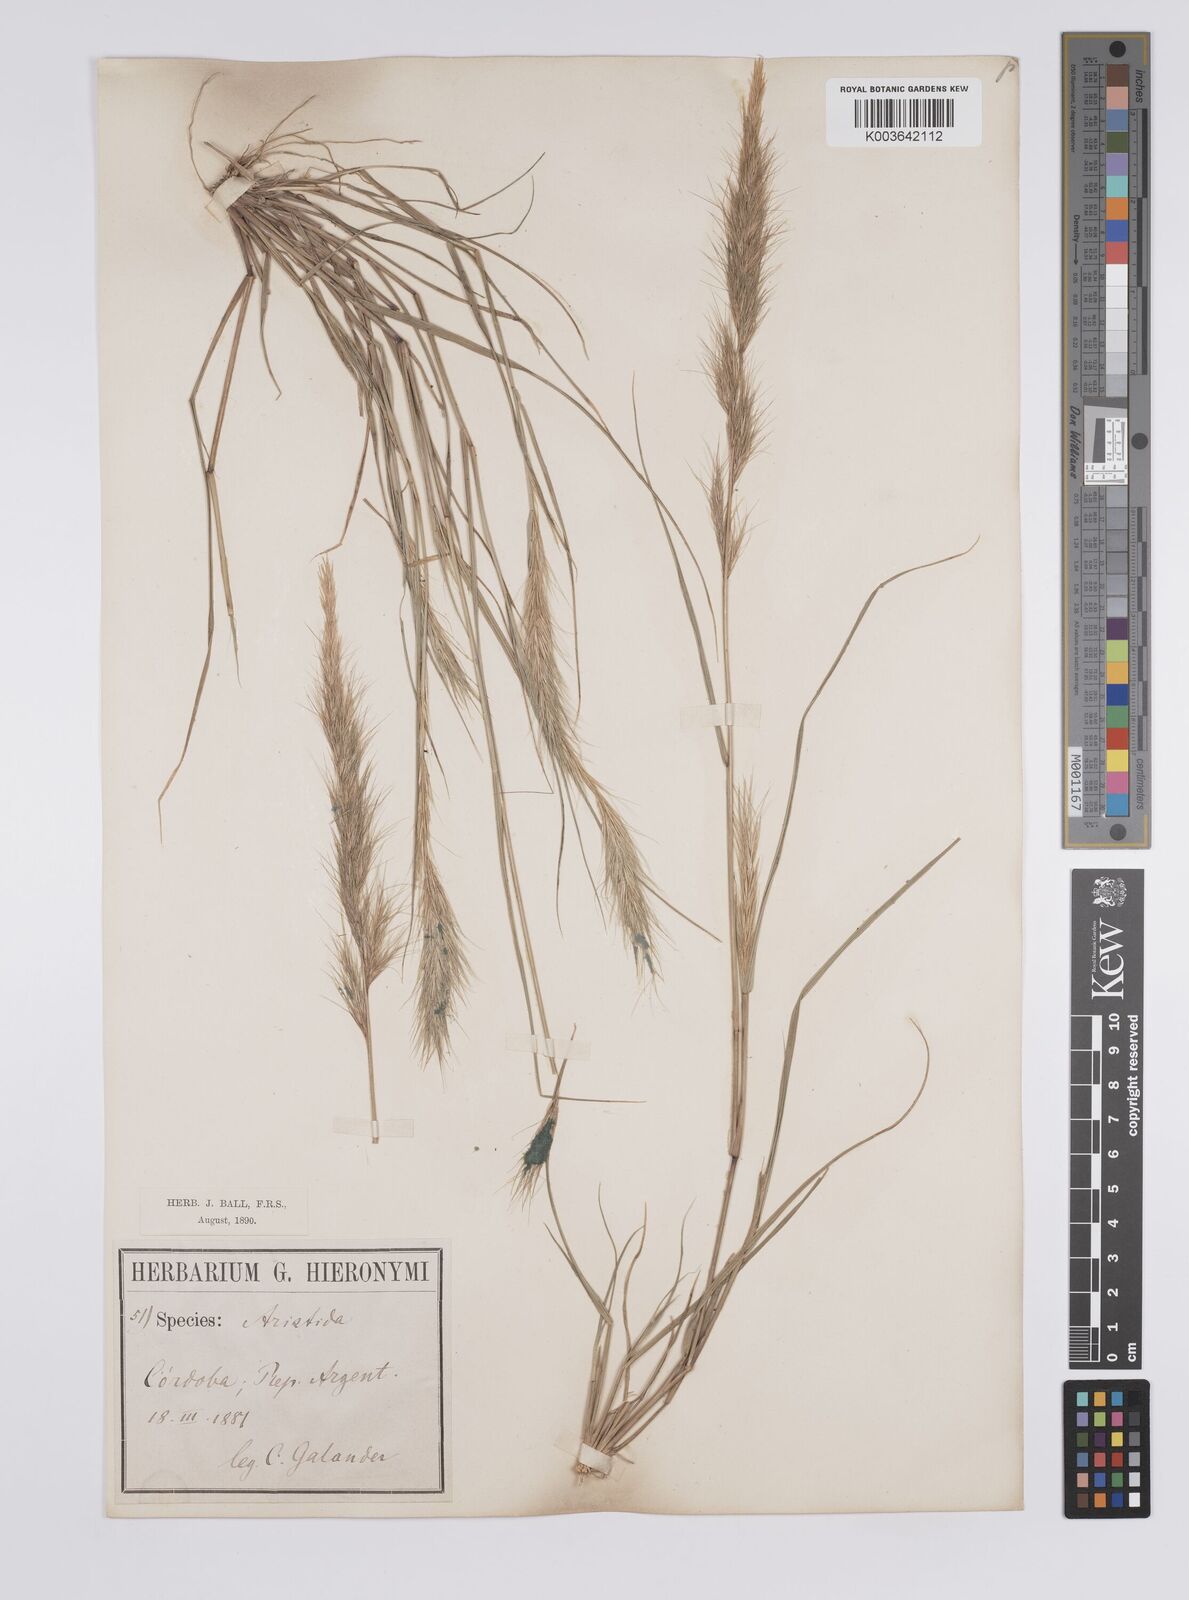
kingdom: Plantae
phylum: Tracheophyta
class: Liliopsida
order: Poales
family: Poaceae
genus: Aristida
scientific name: Aristida adscensionis
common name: Sixweeks threeawn
